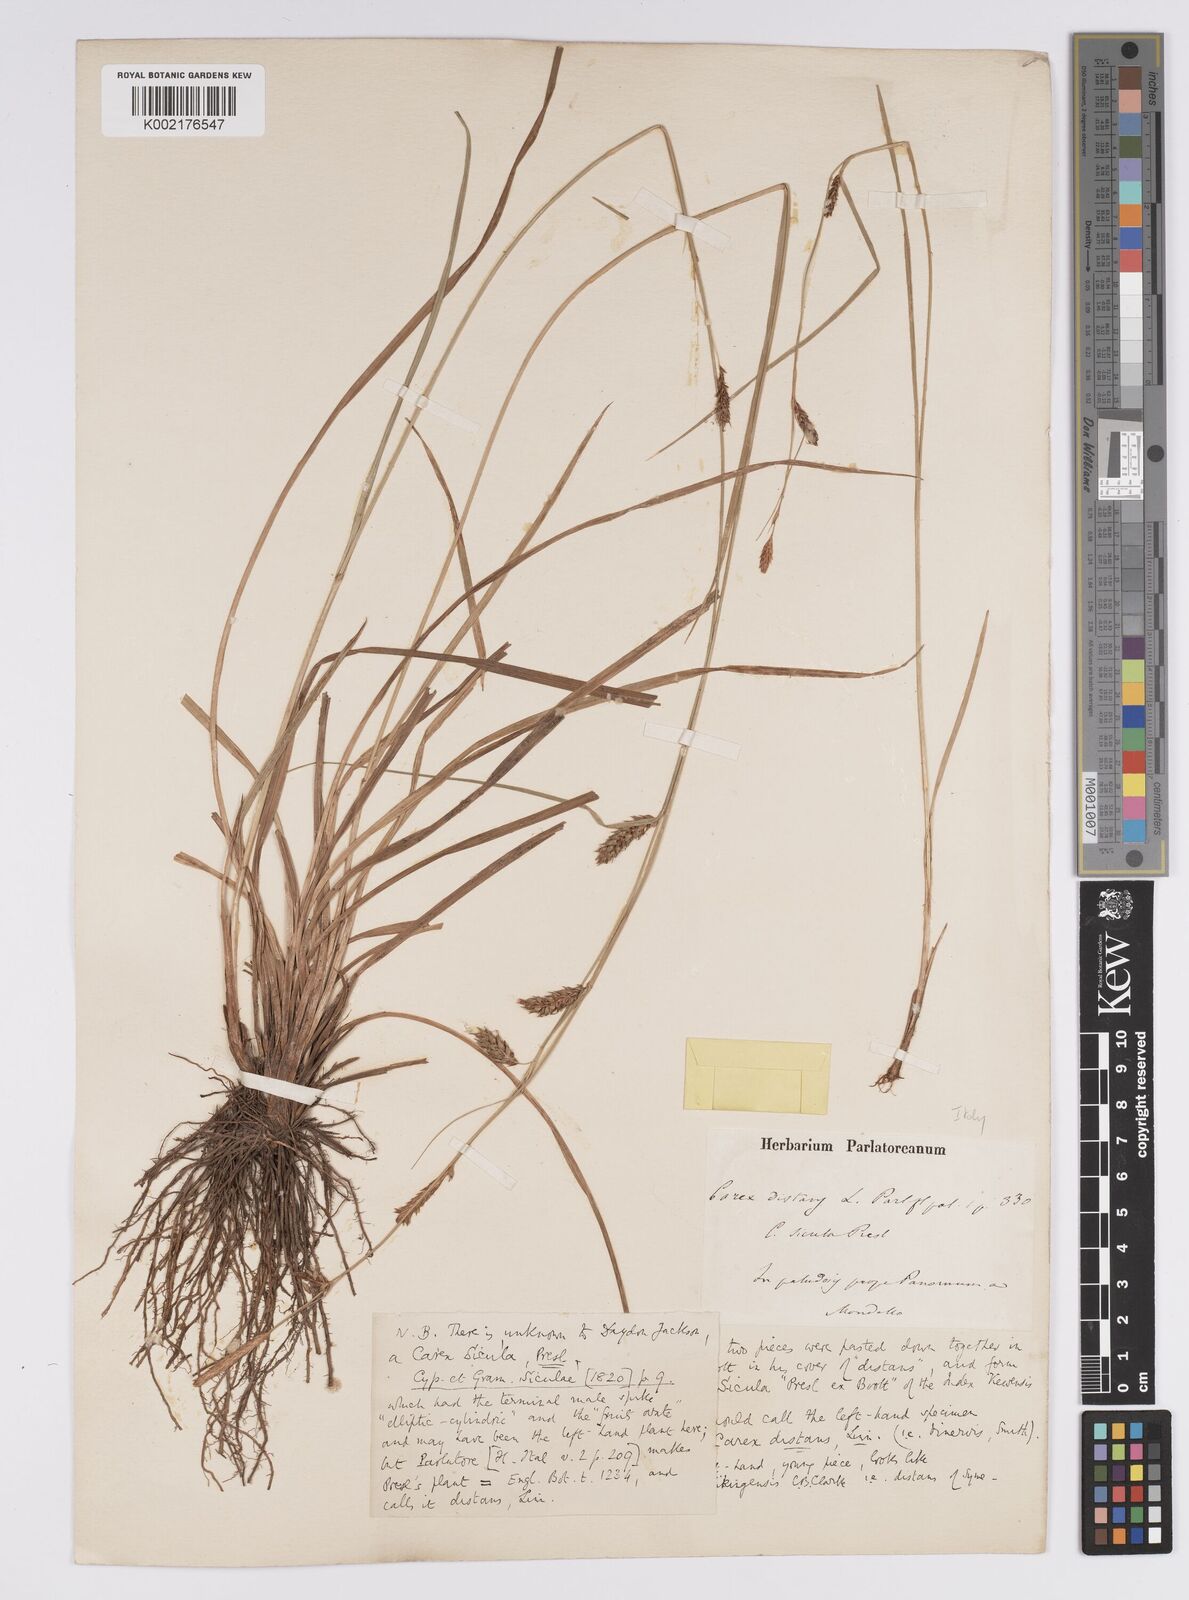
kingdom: Plantae
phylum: Tracheophyta
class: Liliopsida
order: Poales
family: Cyperaceae
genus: Carex
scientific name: Carex distans
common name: Distant sedge
